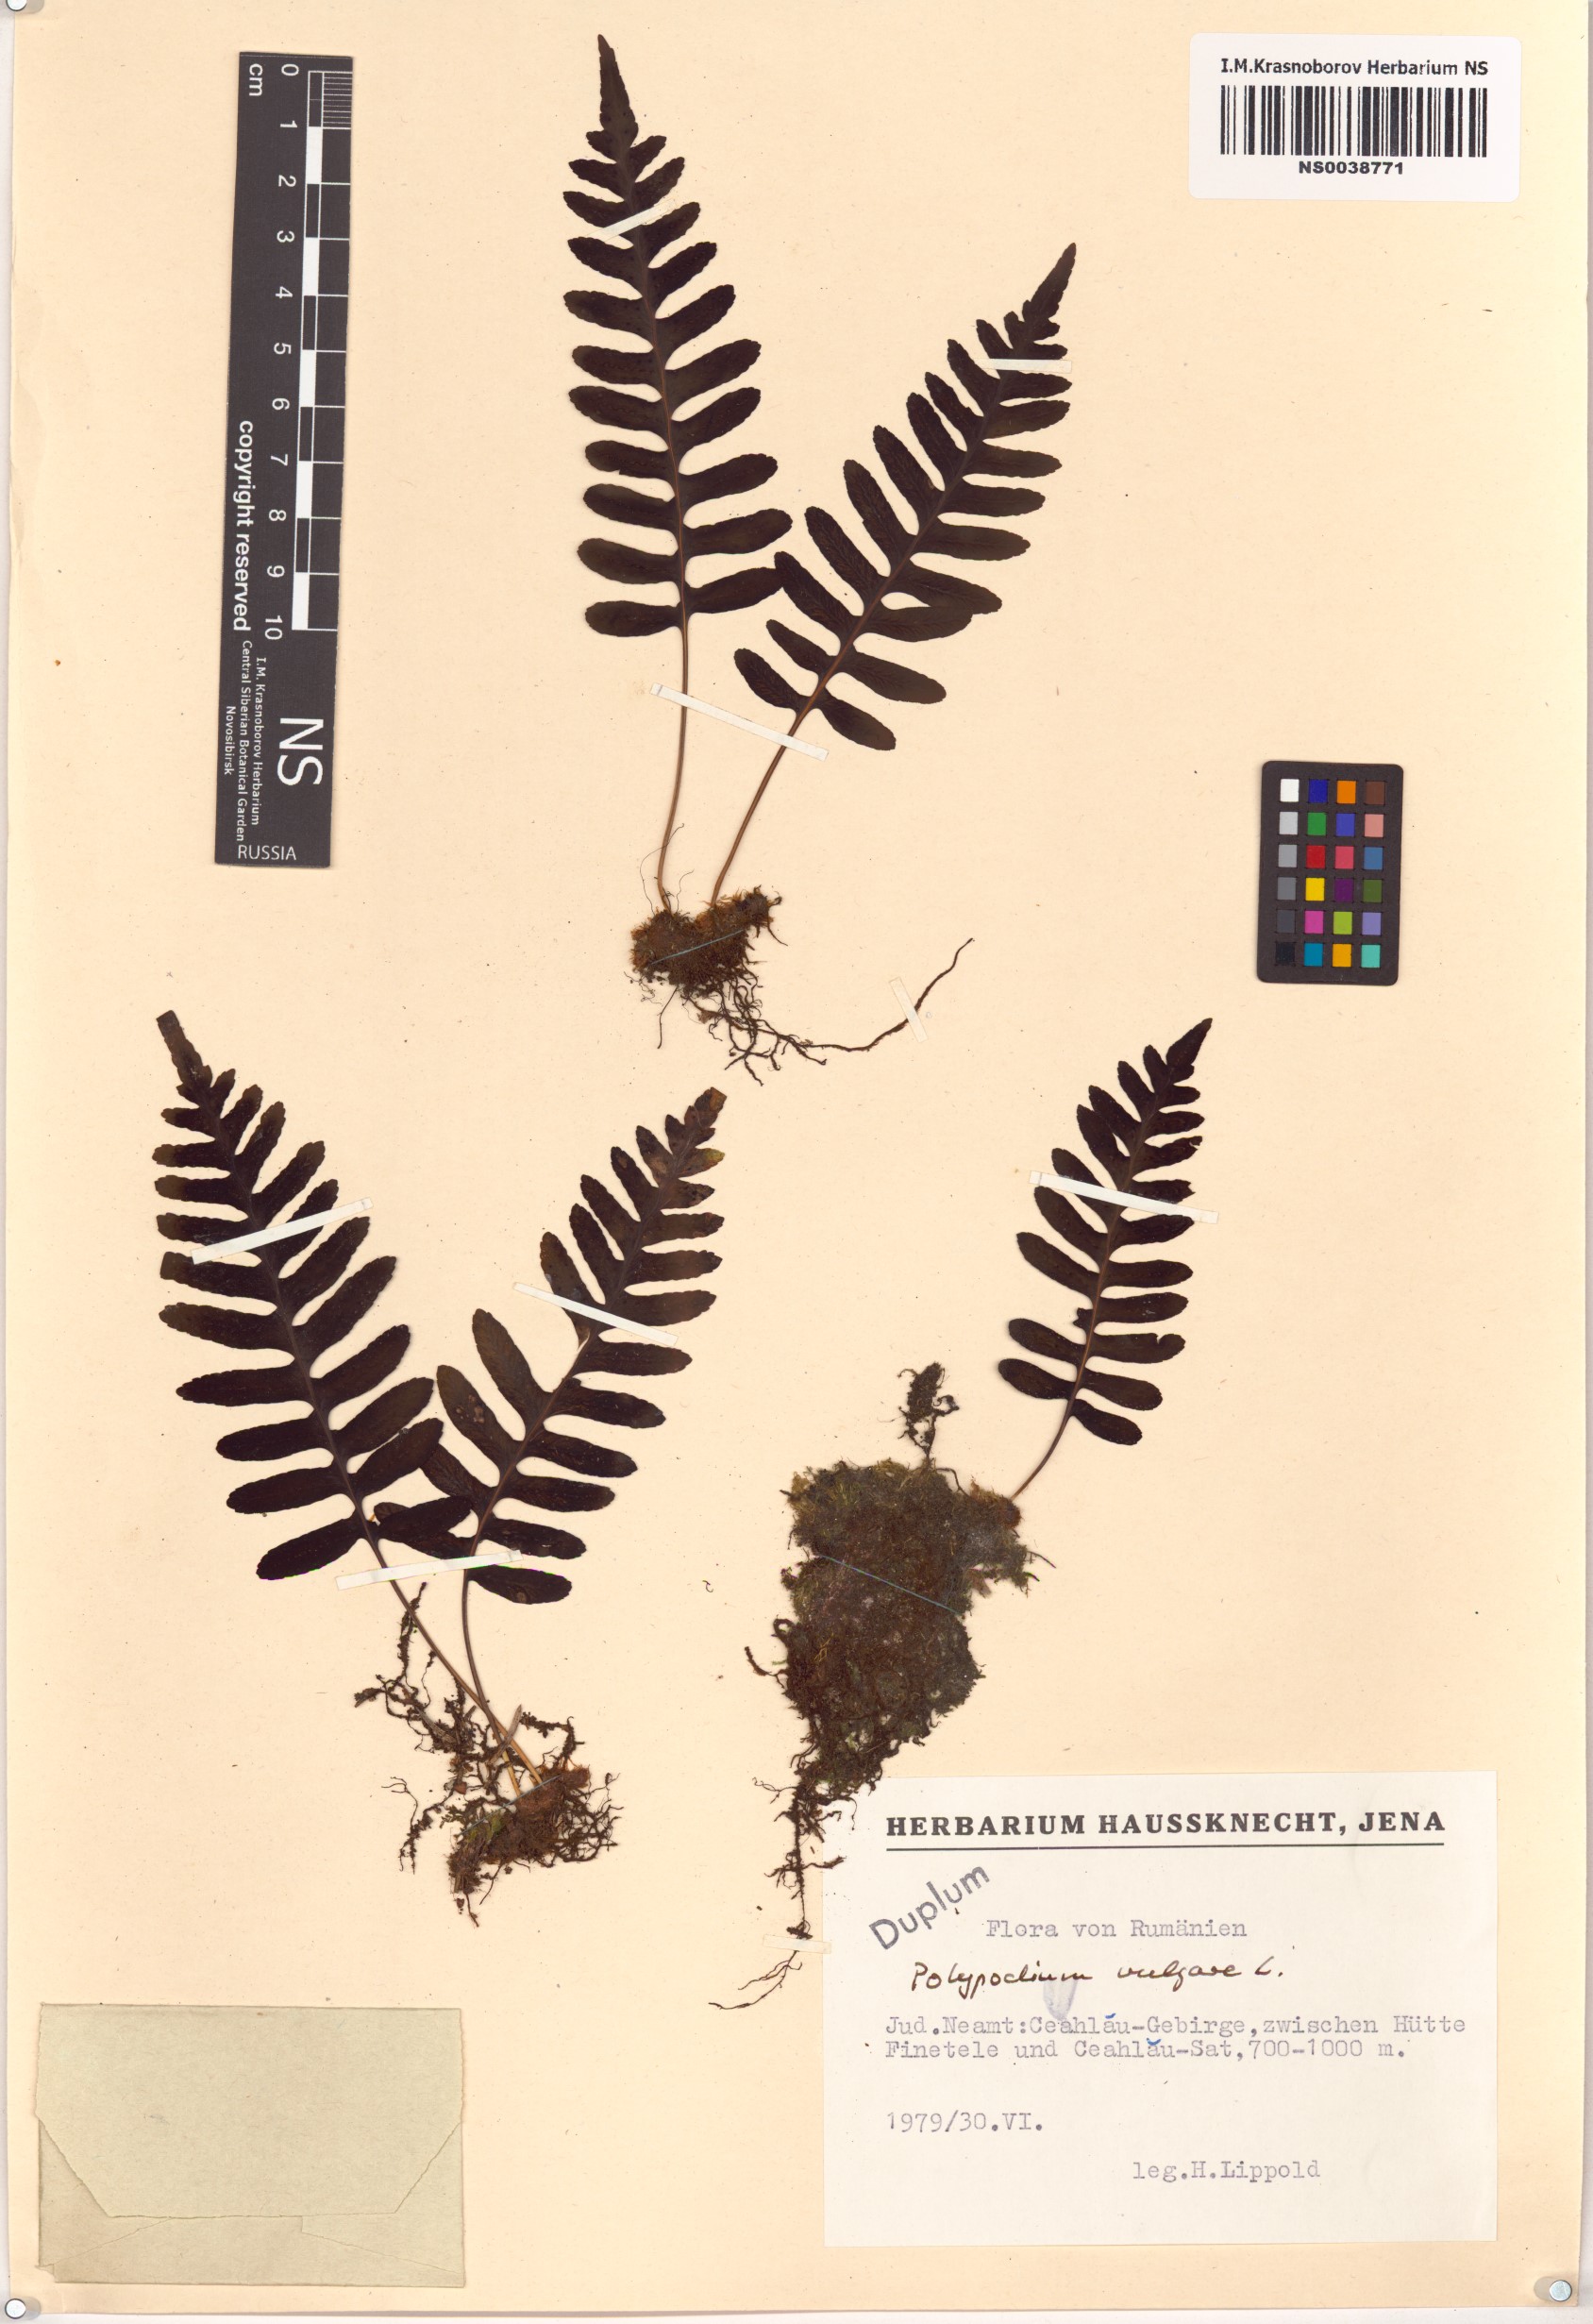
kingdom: Plantae
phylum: Tracheophyta
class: Polypodiopsida
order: Polypodiales
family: Polypodiaceae
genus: Polypodium
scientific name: Polypodium vulgare
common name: Common polypody
